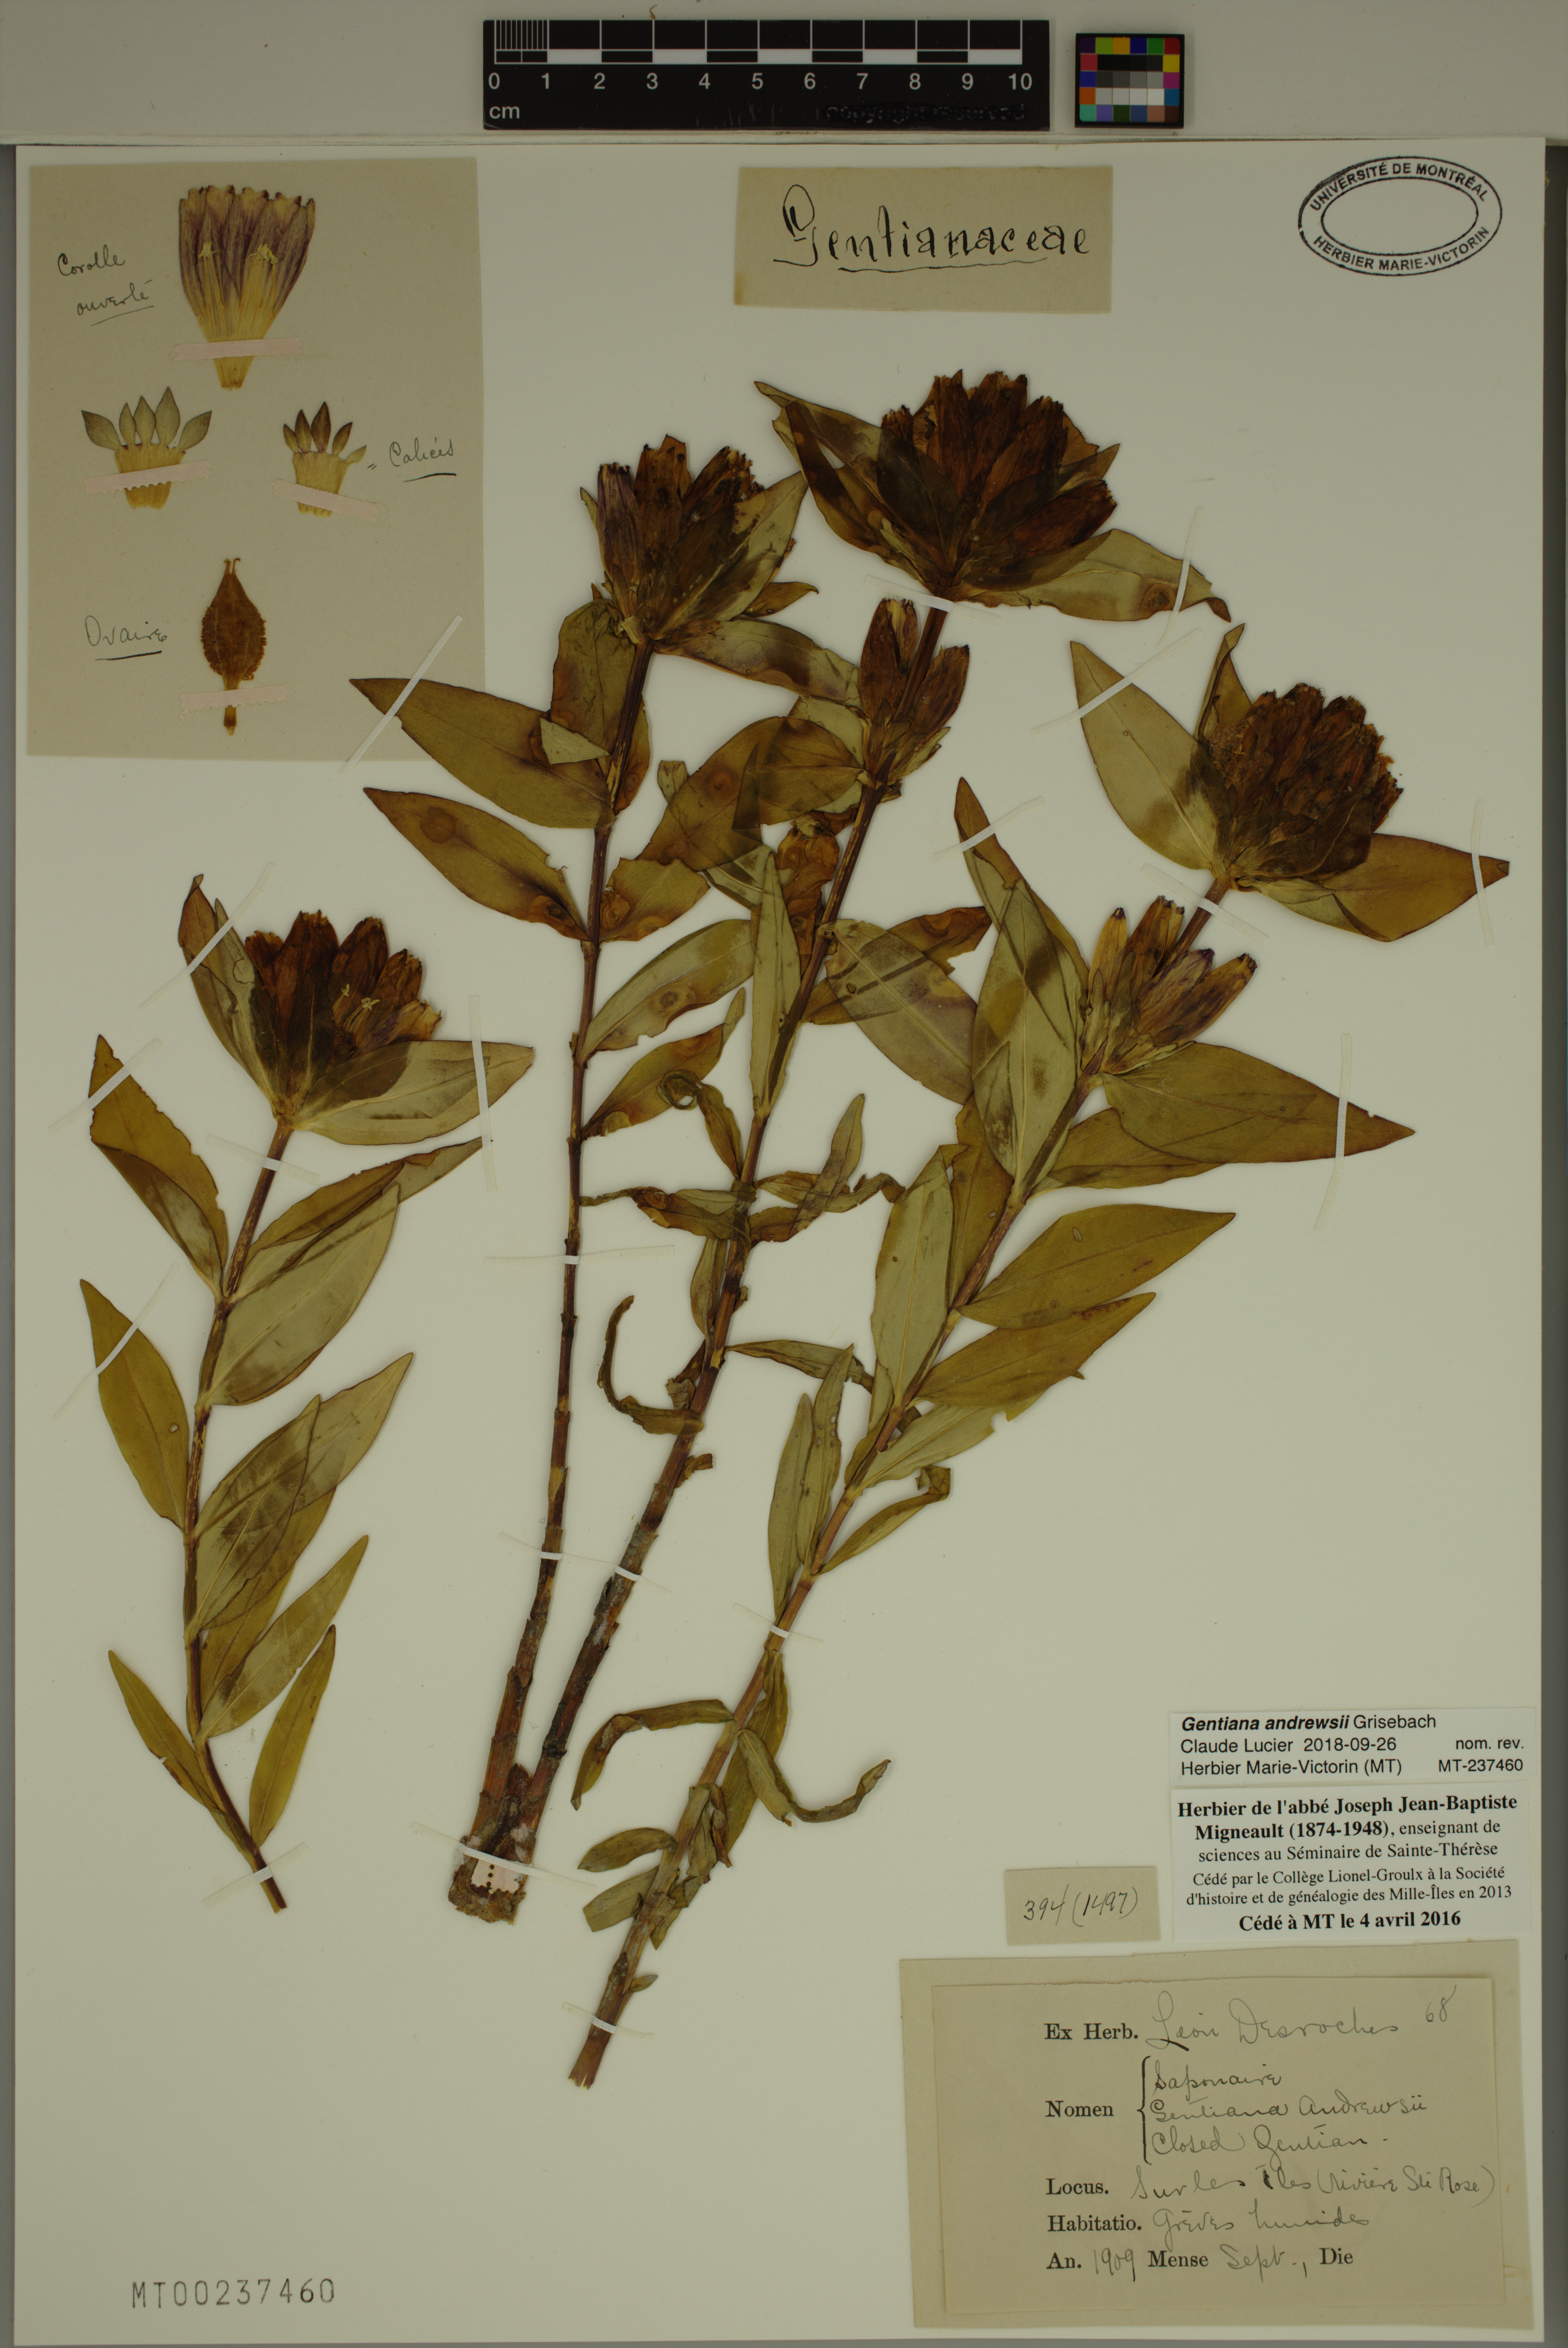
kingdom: Plantae
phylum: Tracheophyta
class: Magnoliopsida
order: Gentianales
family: Gentianaceae
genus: Gentiana
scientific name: Gentiana andrewsii
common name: Bottle gentian
